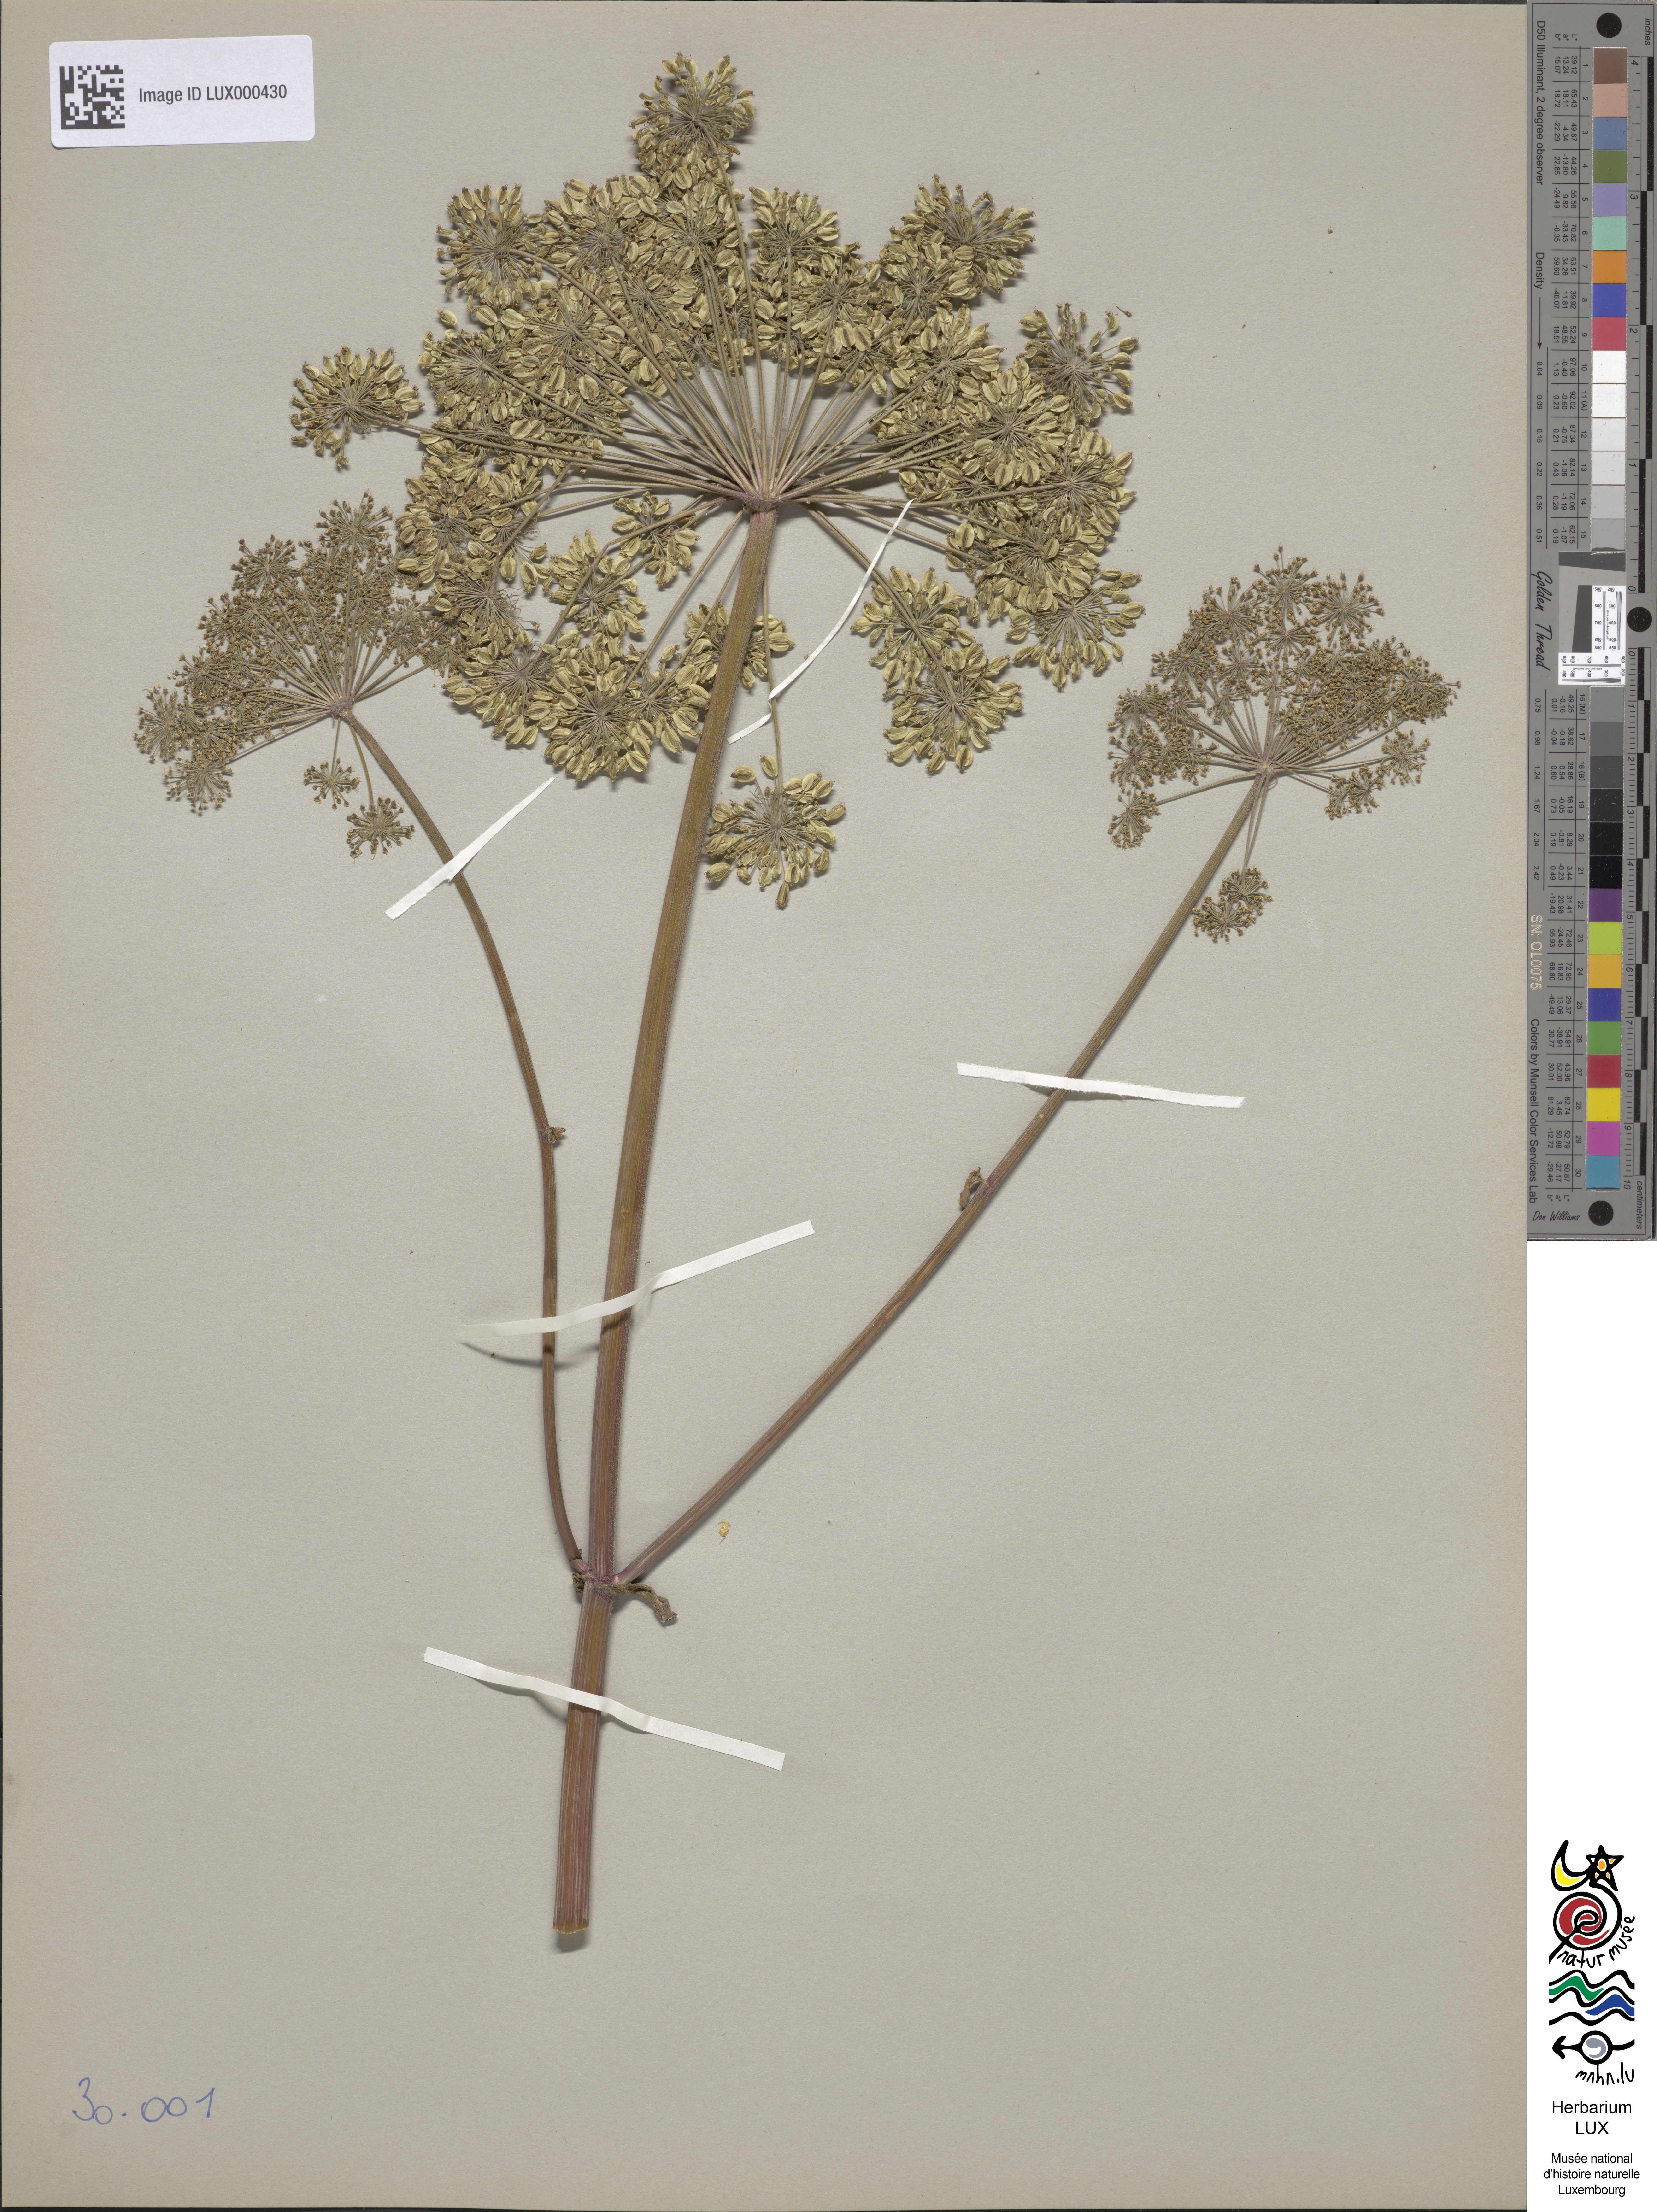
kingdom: Plantae
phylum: Tracheophyta
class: Magnoliopsida
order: Apiales
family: Apiaceae
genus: Angelica
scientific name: Angelica sylvestris
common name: Wild angelica
